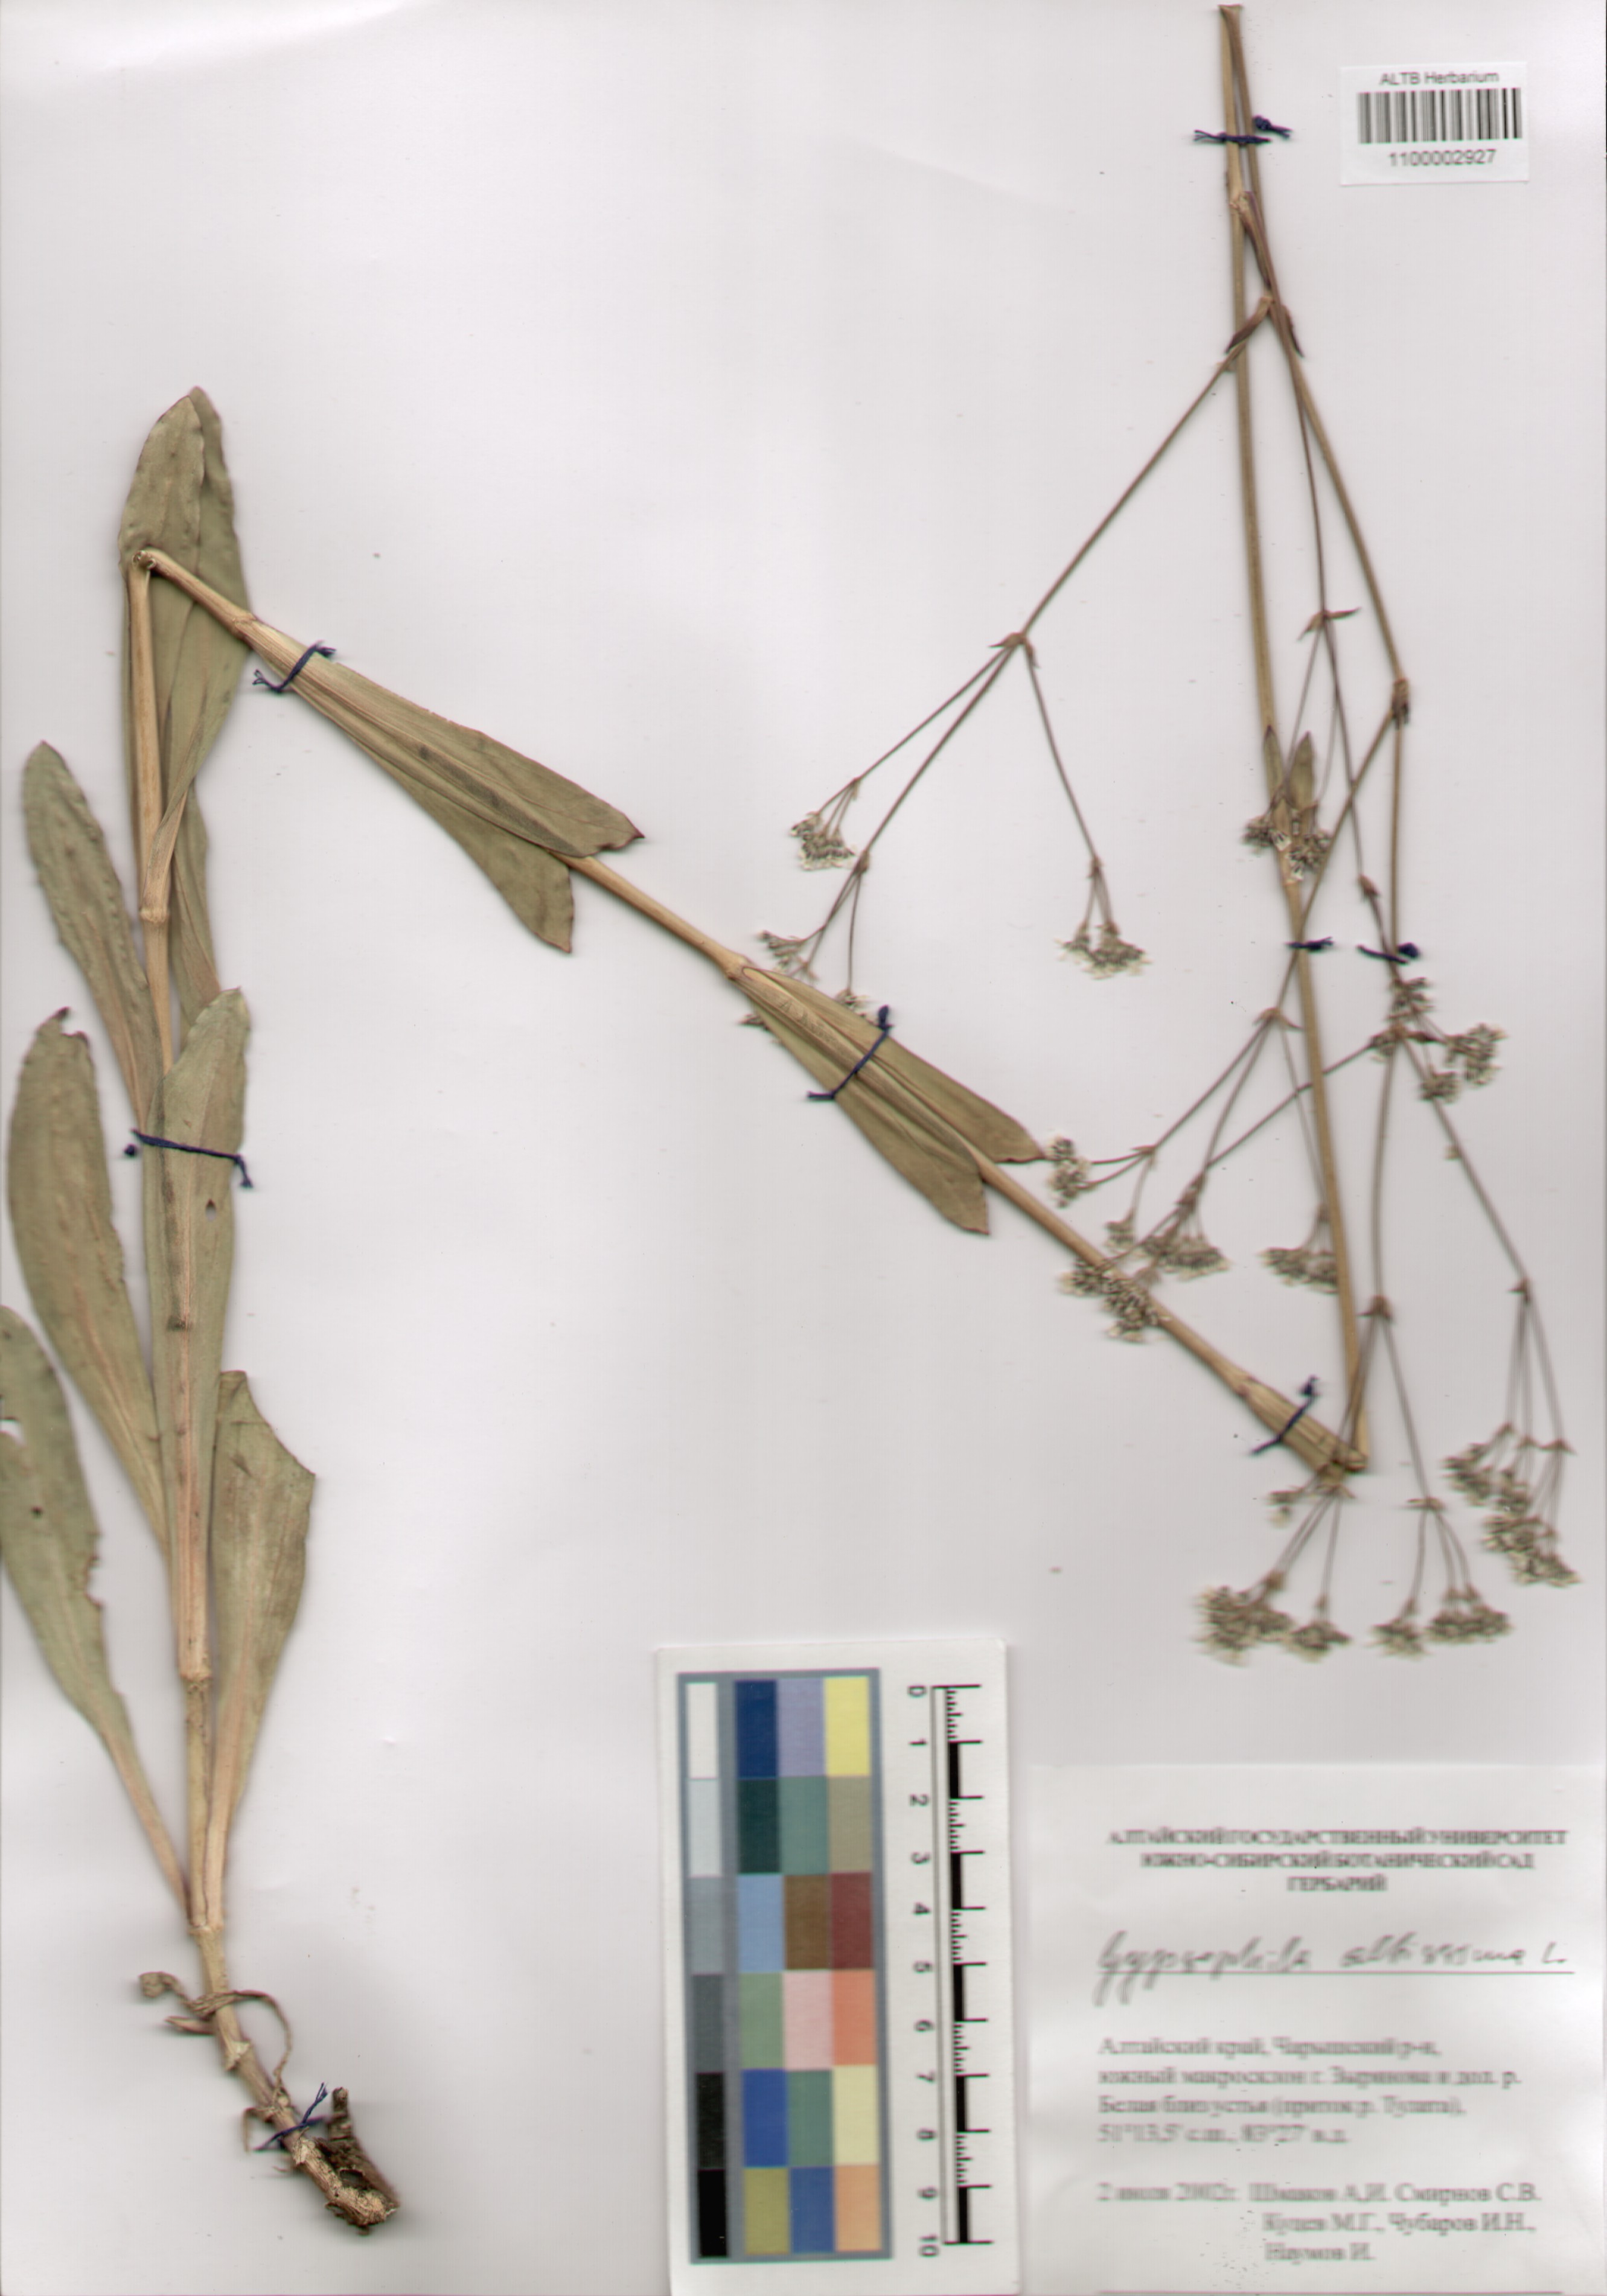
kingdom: Plantae
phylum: Tracheophyta
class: Magnoliopsida
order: Caryophyllales
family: Caryophyllaceae
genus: Gypsophila
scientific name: Gypsophila altissima
